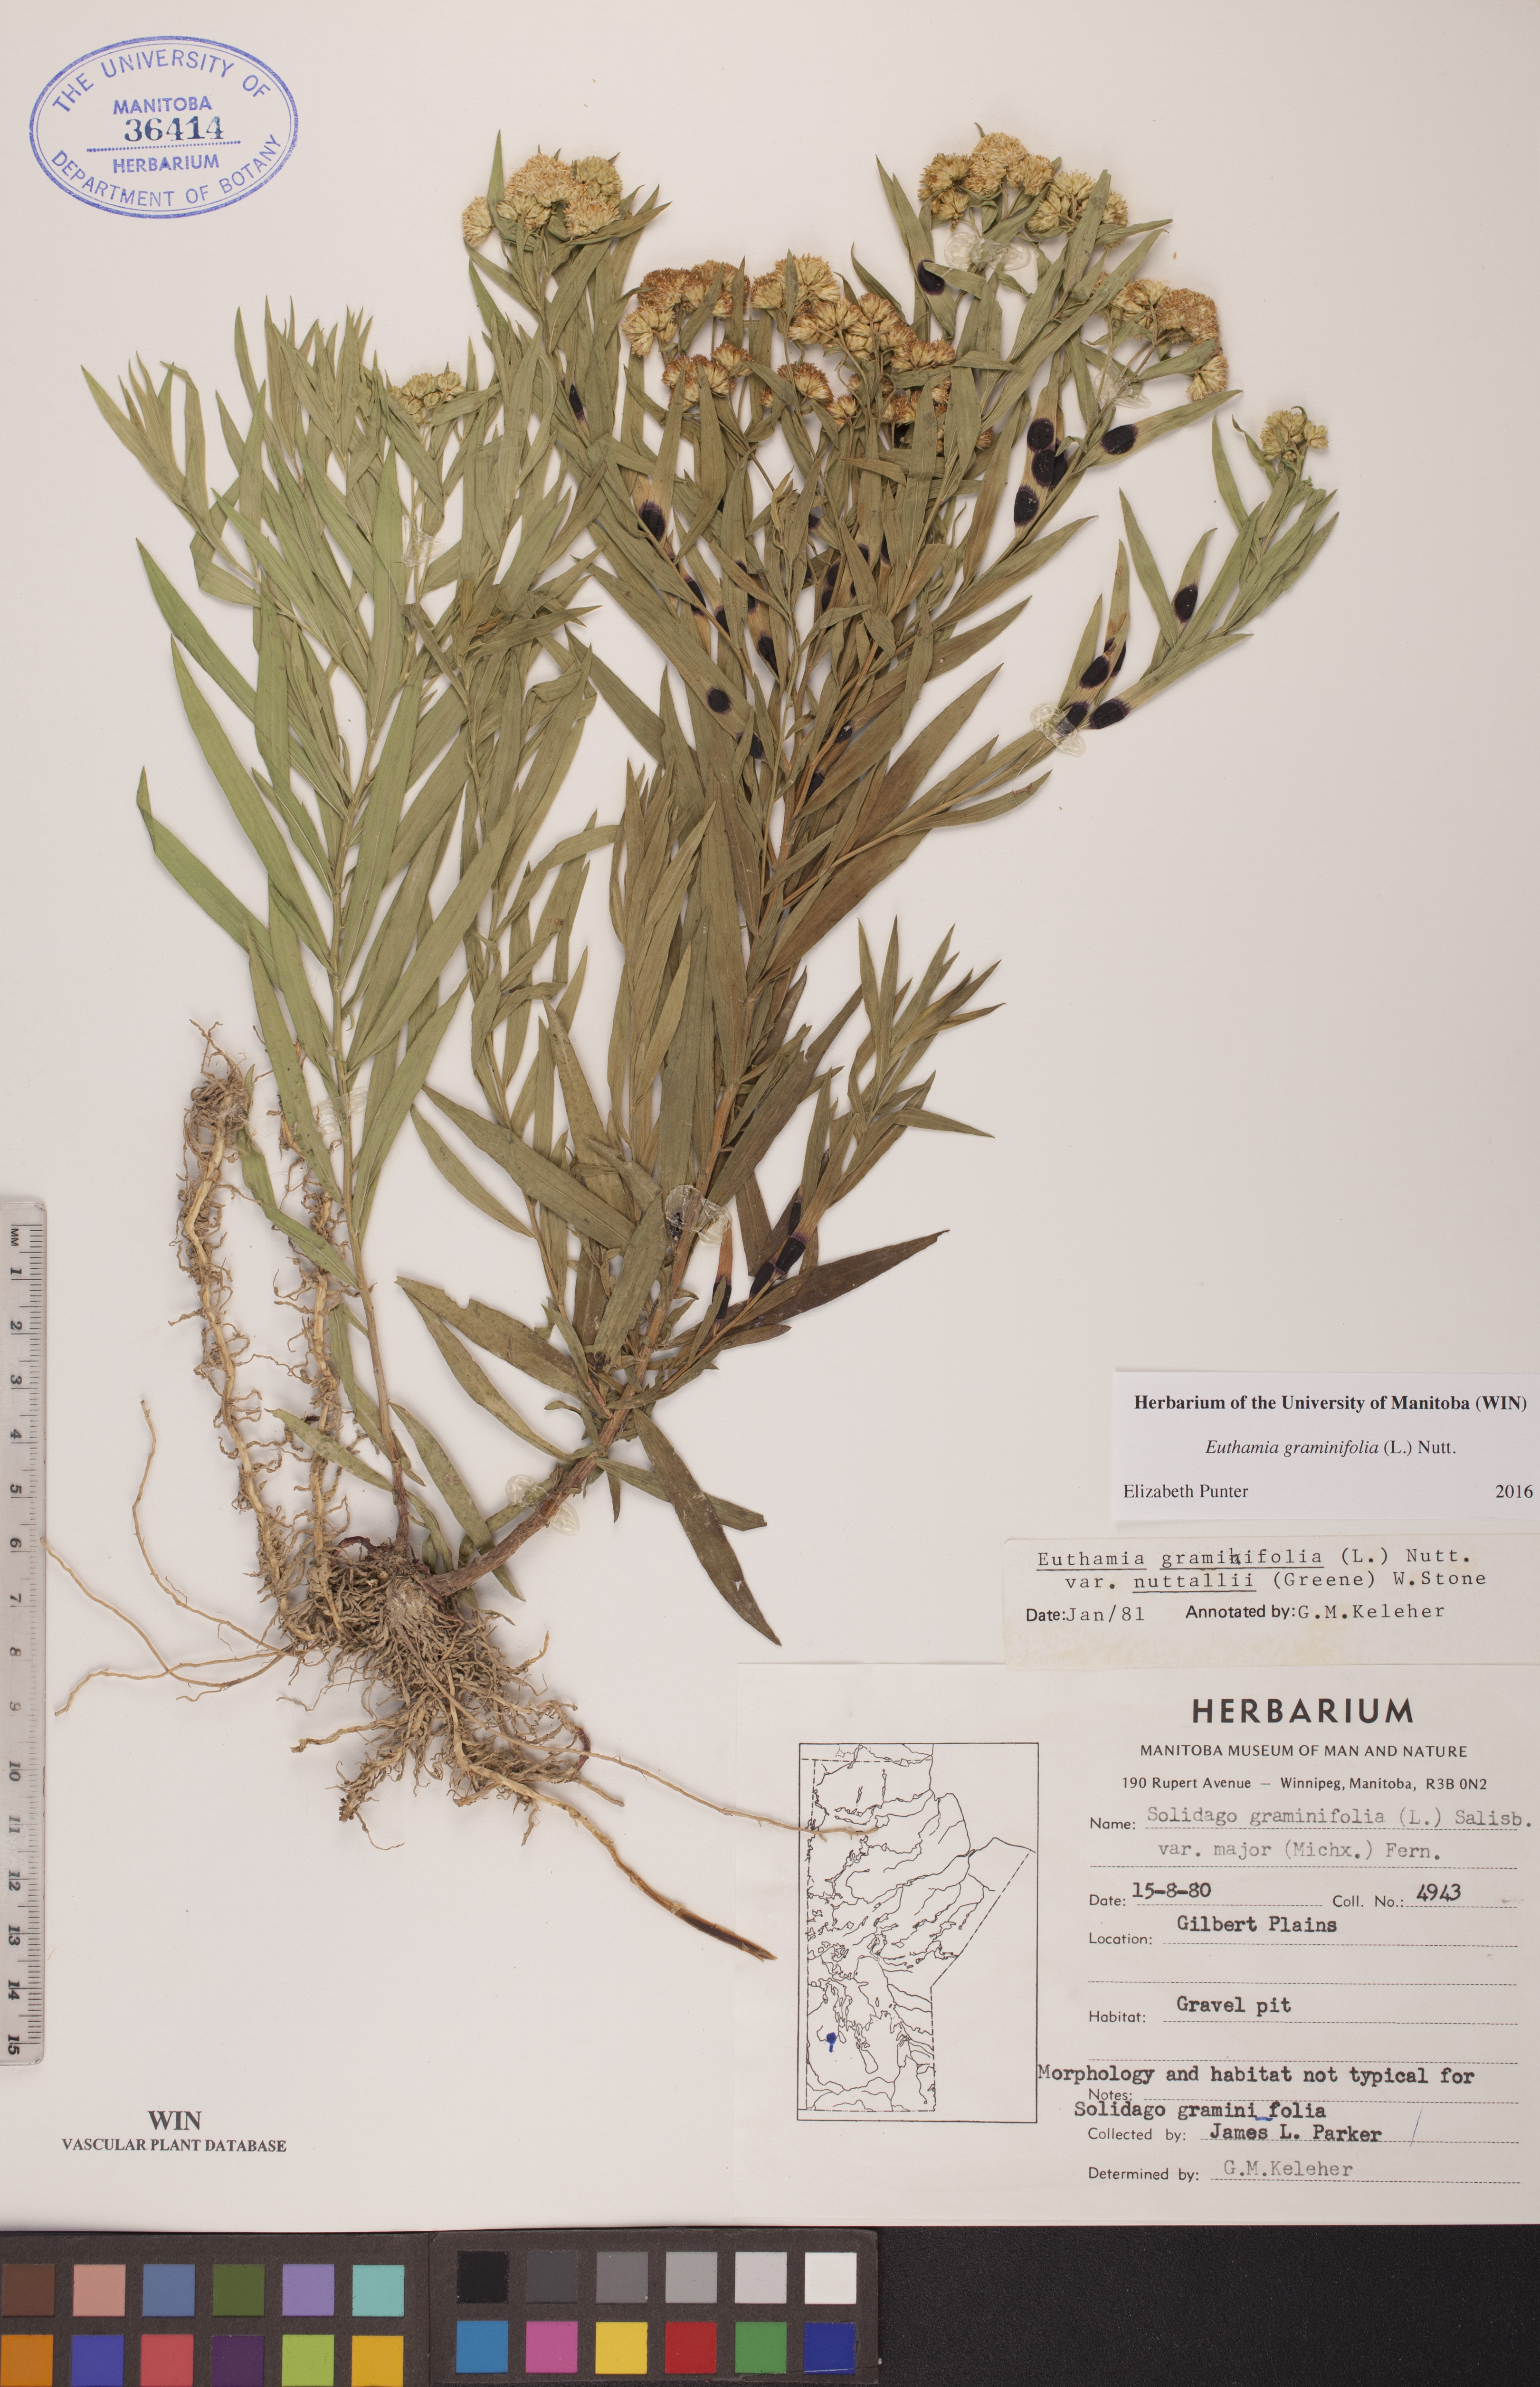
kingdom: Plantae
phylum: Tracheophyta
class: Magnoliopsida
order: Asterales
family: Asteraceae
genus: Euthamia
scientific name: Euthamia graminifolia
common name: Common goldentop
